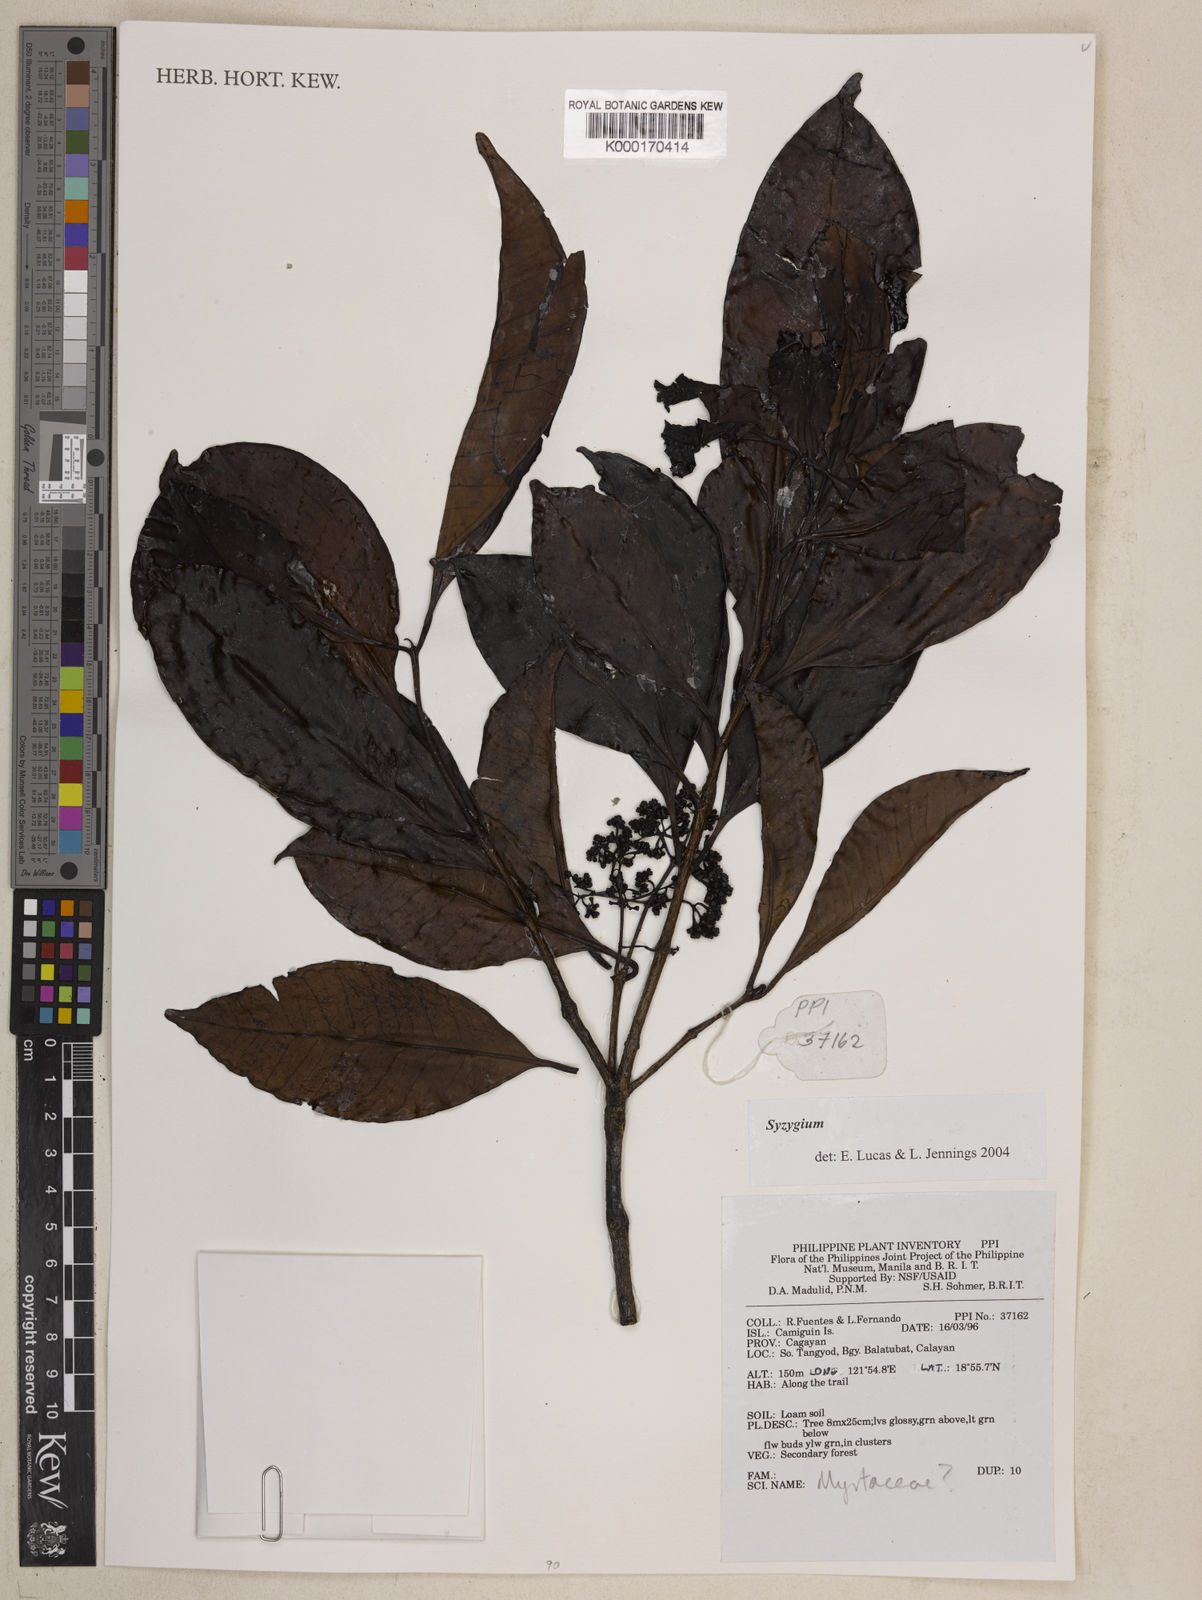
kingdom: Plantae
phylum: Tracheophyta
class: Magnoliopsida
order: Myrtales
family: Myrtaceae
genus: Syzygium
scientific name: Syzygium
